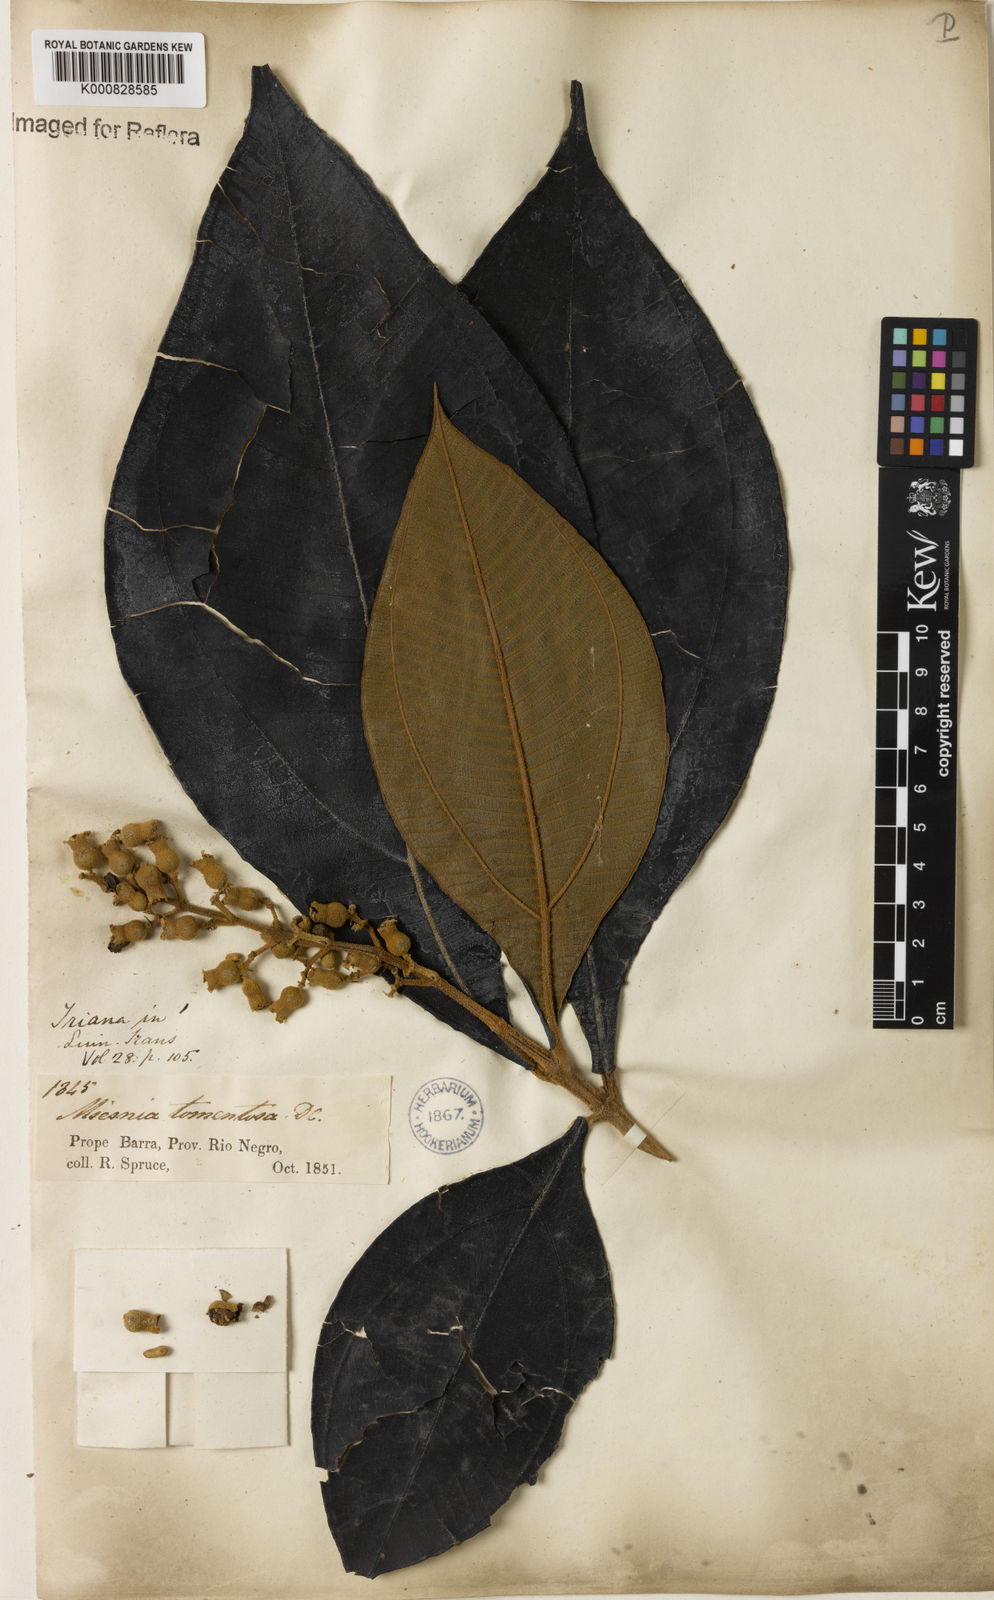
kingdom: Plantae
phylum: Tracheophyta
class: Magnoliopsida
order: Myrtales
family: Melastomataceae
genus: Miconia
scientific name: Miconia tomentosa
